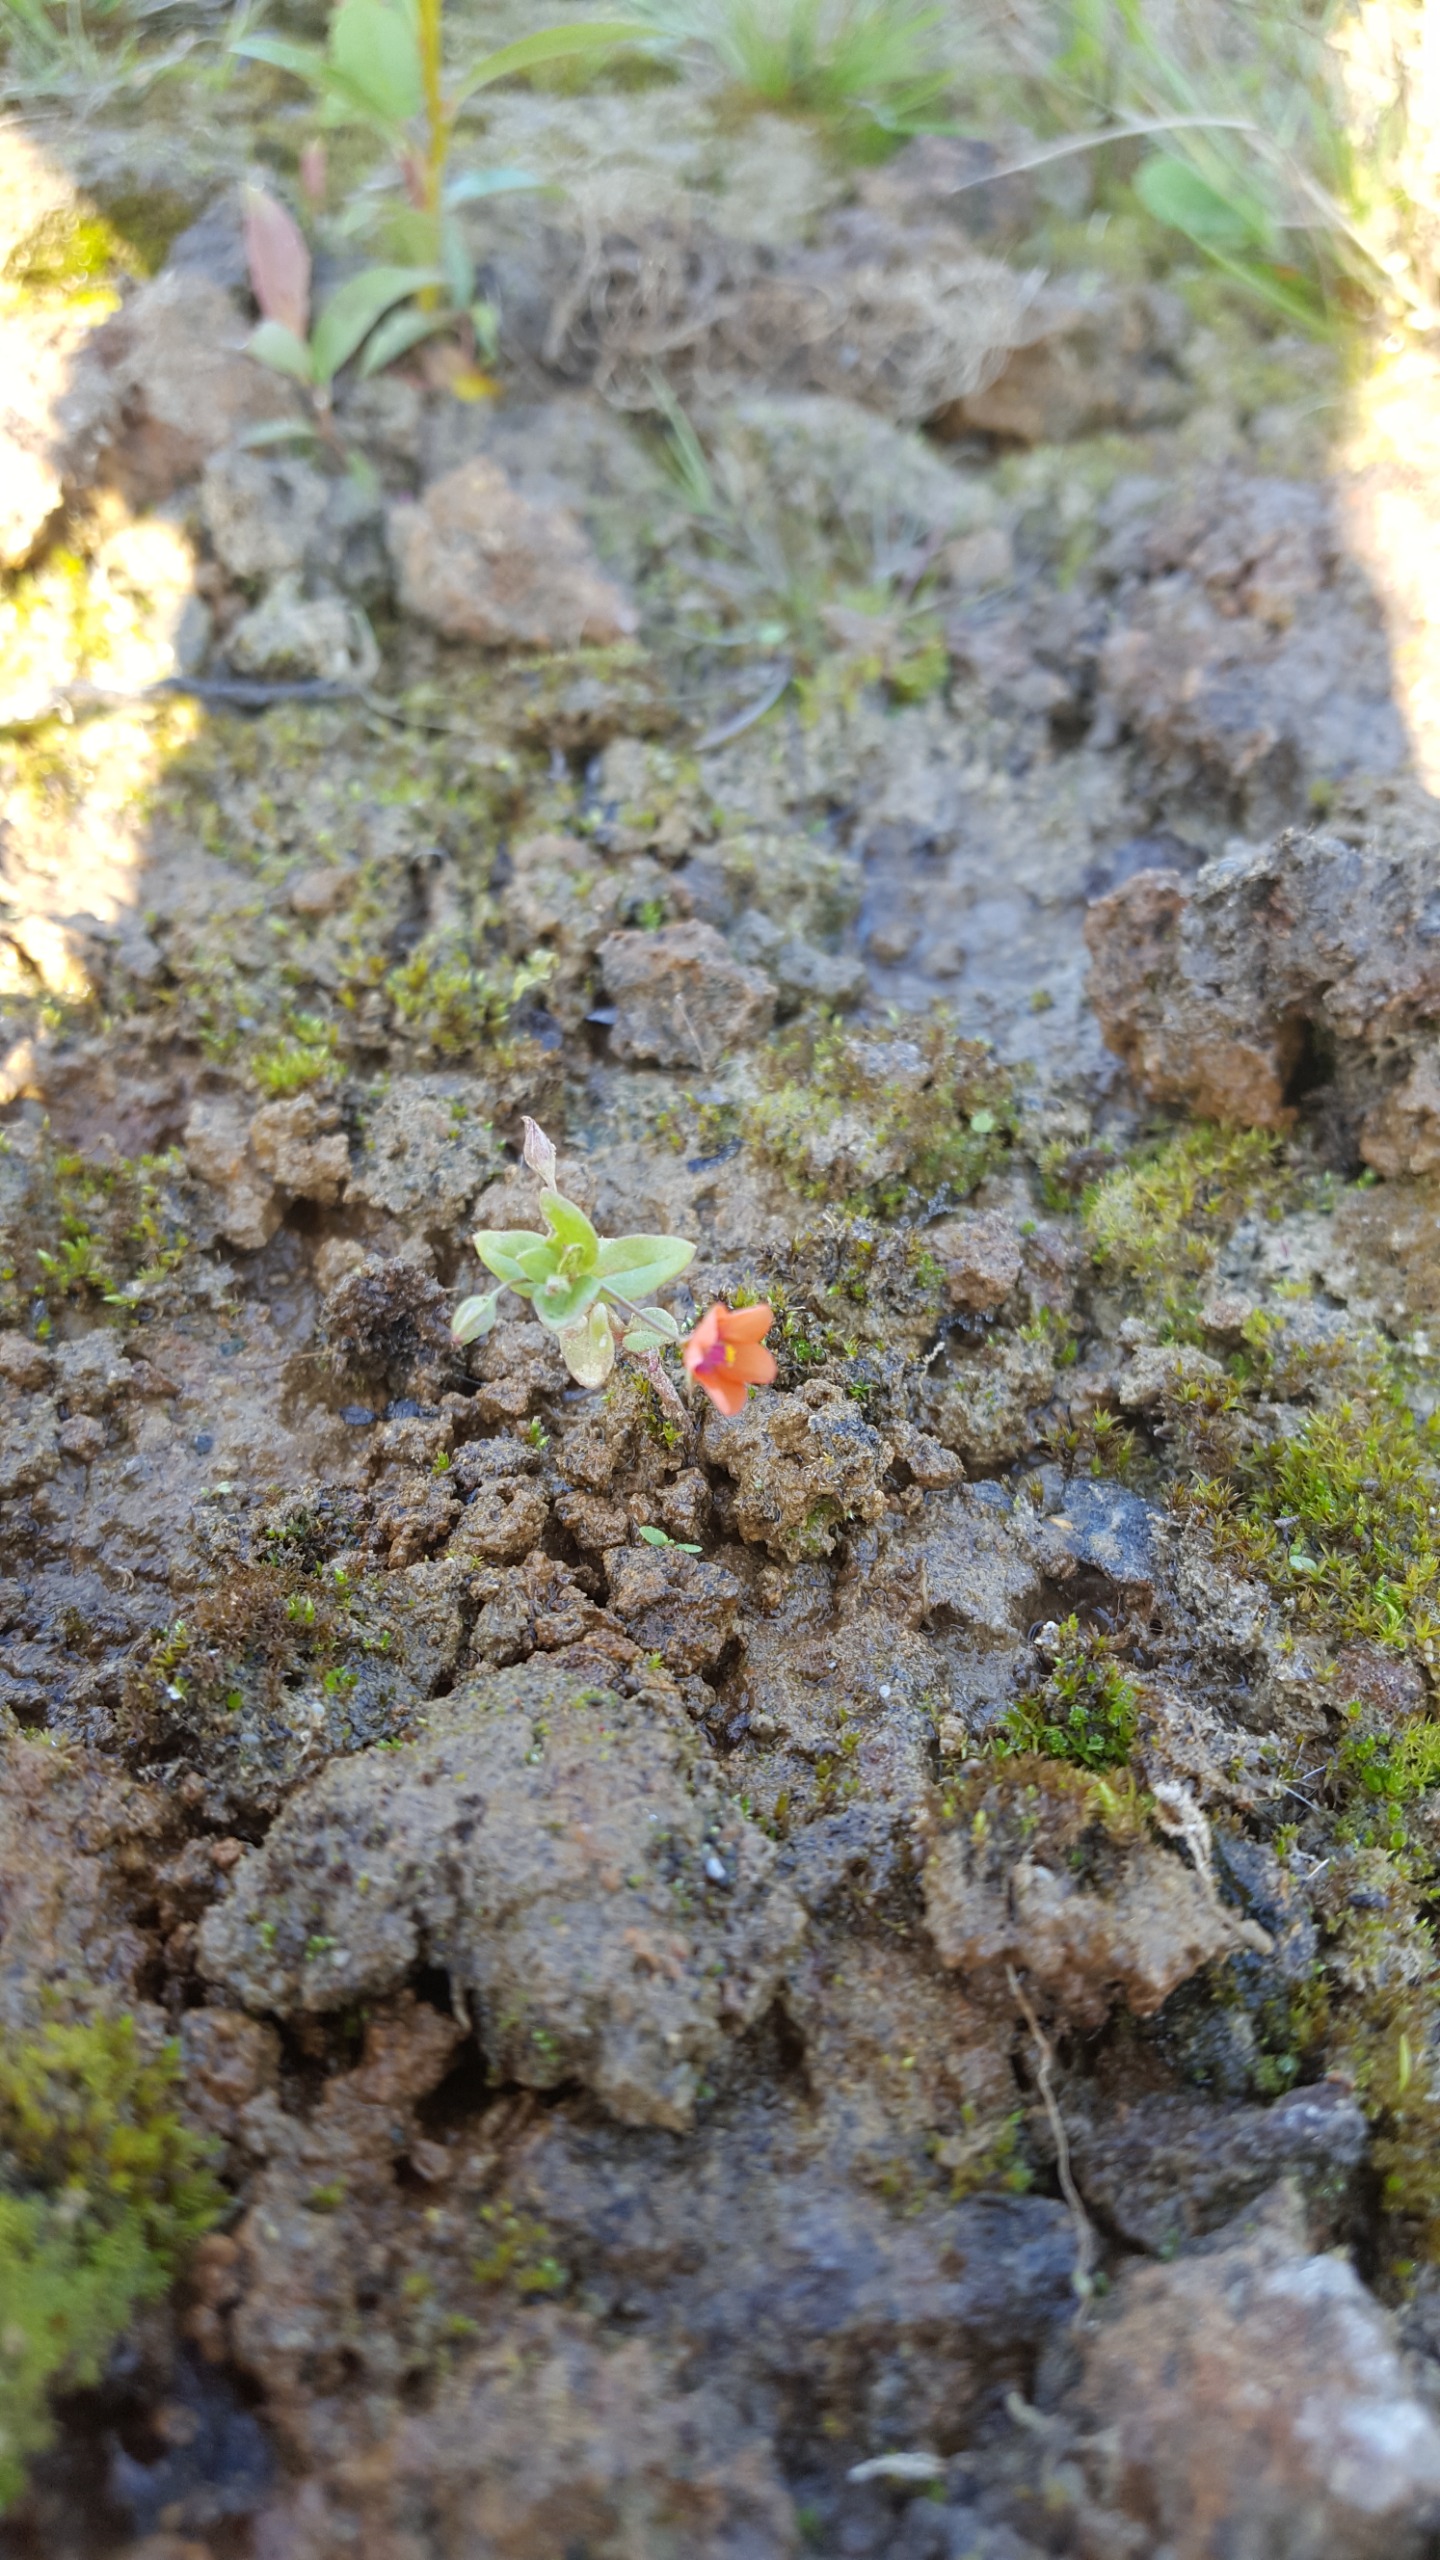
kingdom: Plantae
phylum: Tracheophyta
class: Magnoliopsida
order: Ericales
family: Primulaceae
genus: Lysimachia
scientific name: Lysimachia arvensis
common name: Rød arve
